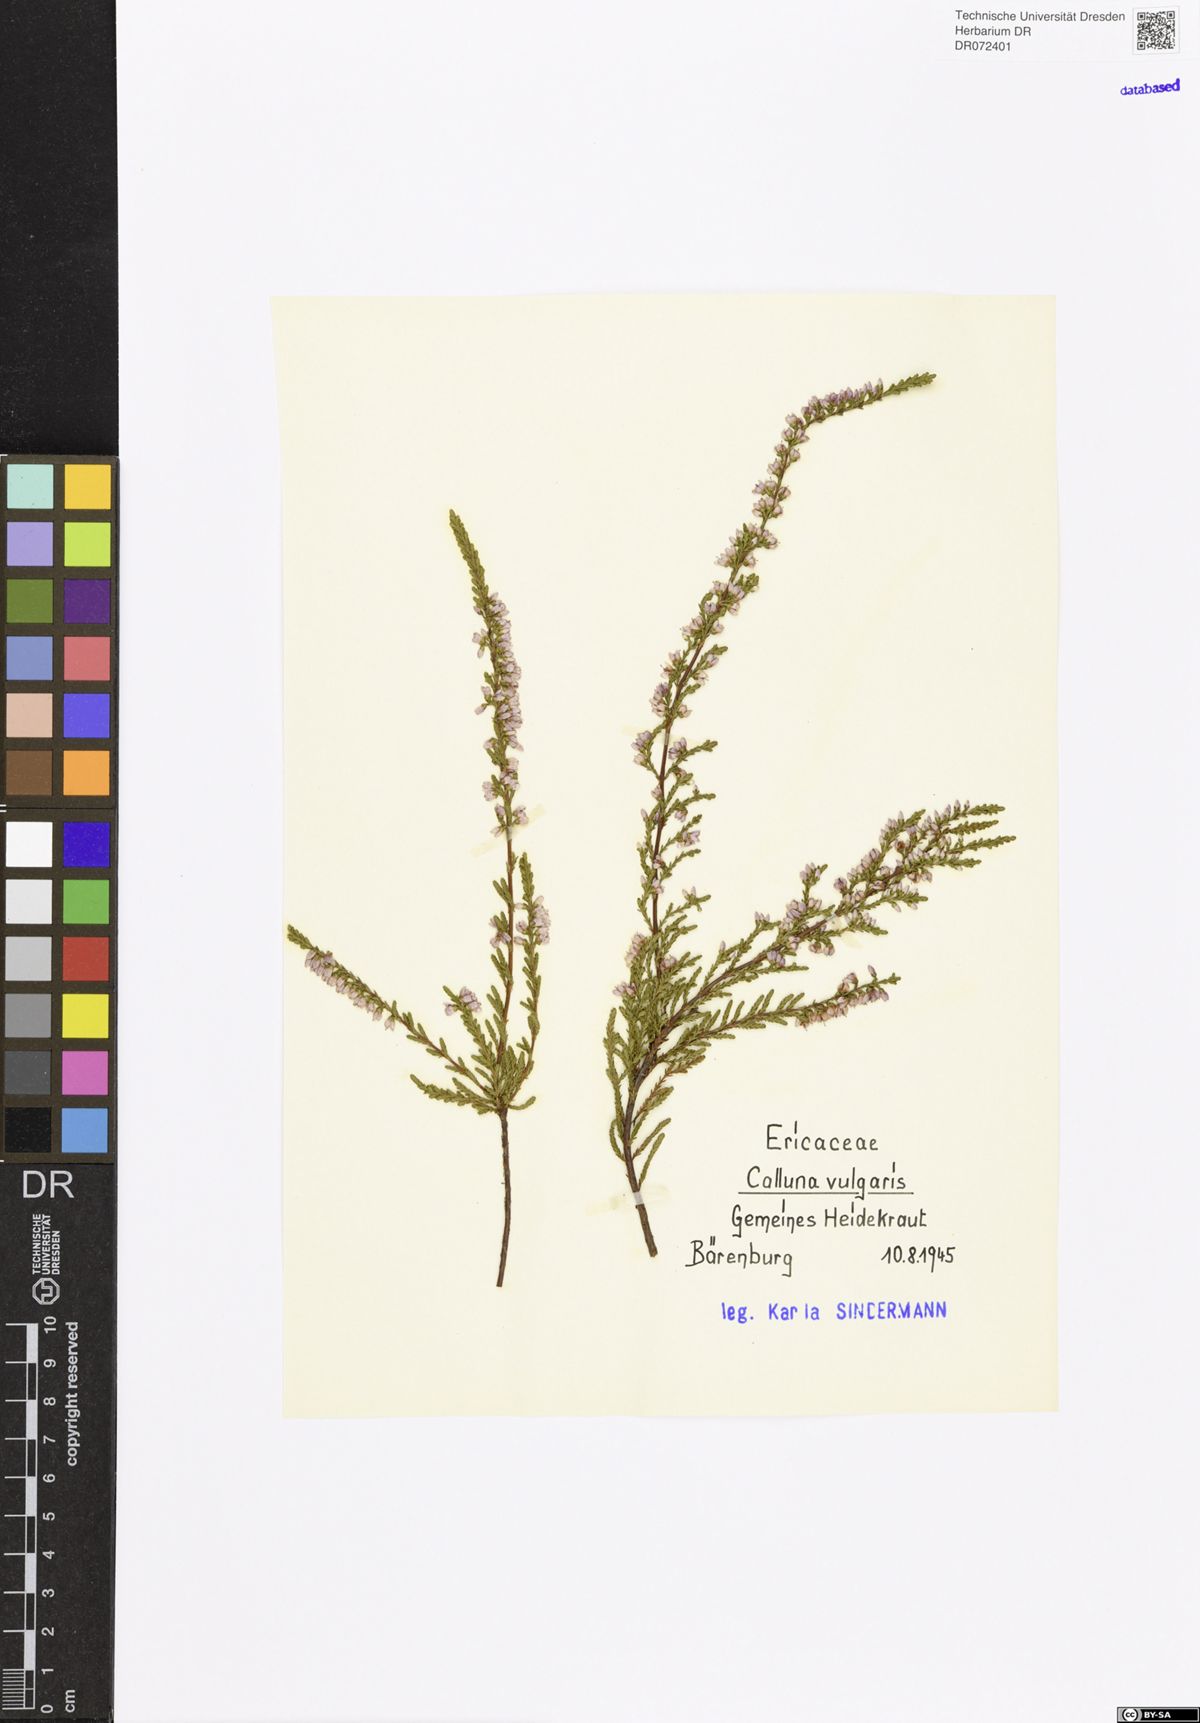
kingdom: Plantae
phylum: Tracheophyta
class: Magnoliopsida
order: Ericales
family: Ericaceae
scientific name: Ericaceae
